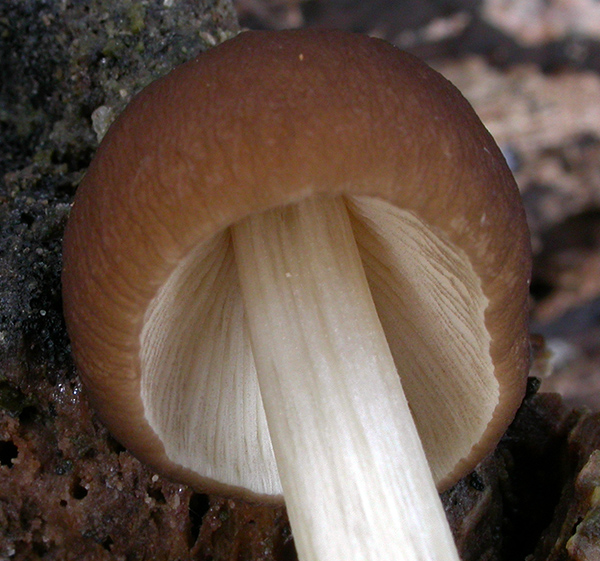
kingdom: Fungi
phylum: Basidiomycota
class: Agaricomycetes
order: Agaricales
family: Pluteaceae
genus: Pluteus
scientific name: Pluteus phlebophorus
